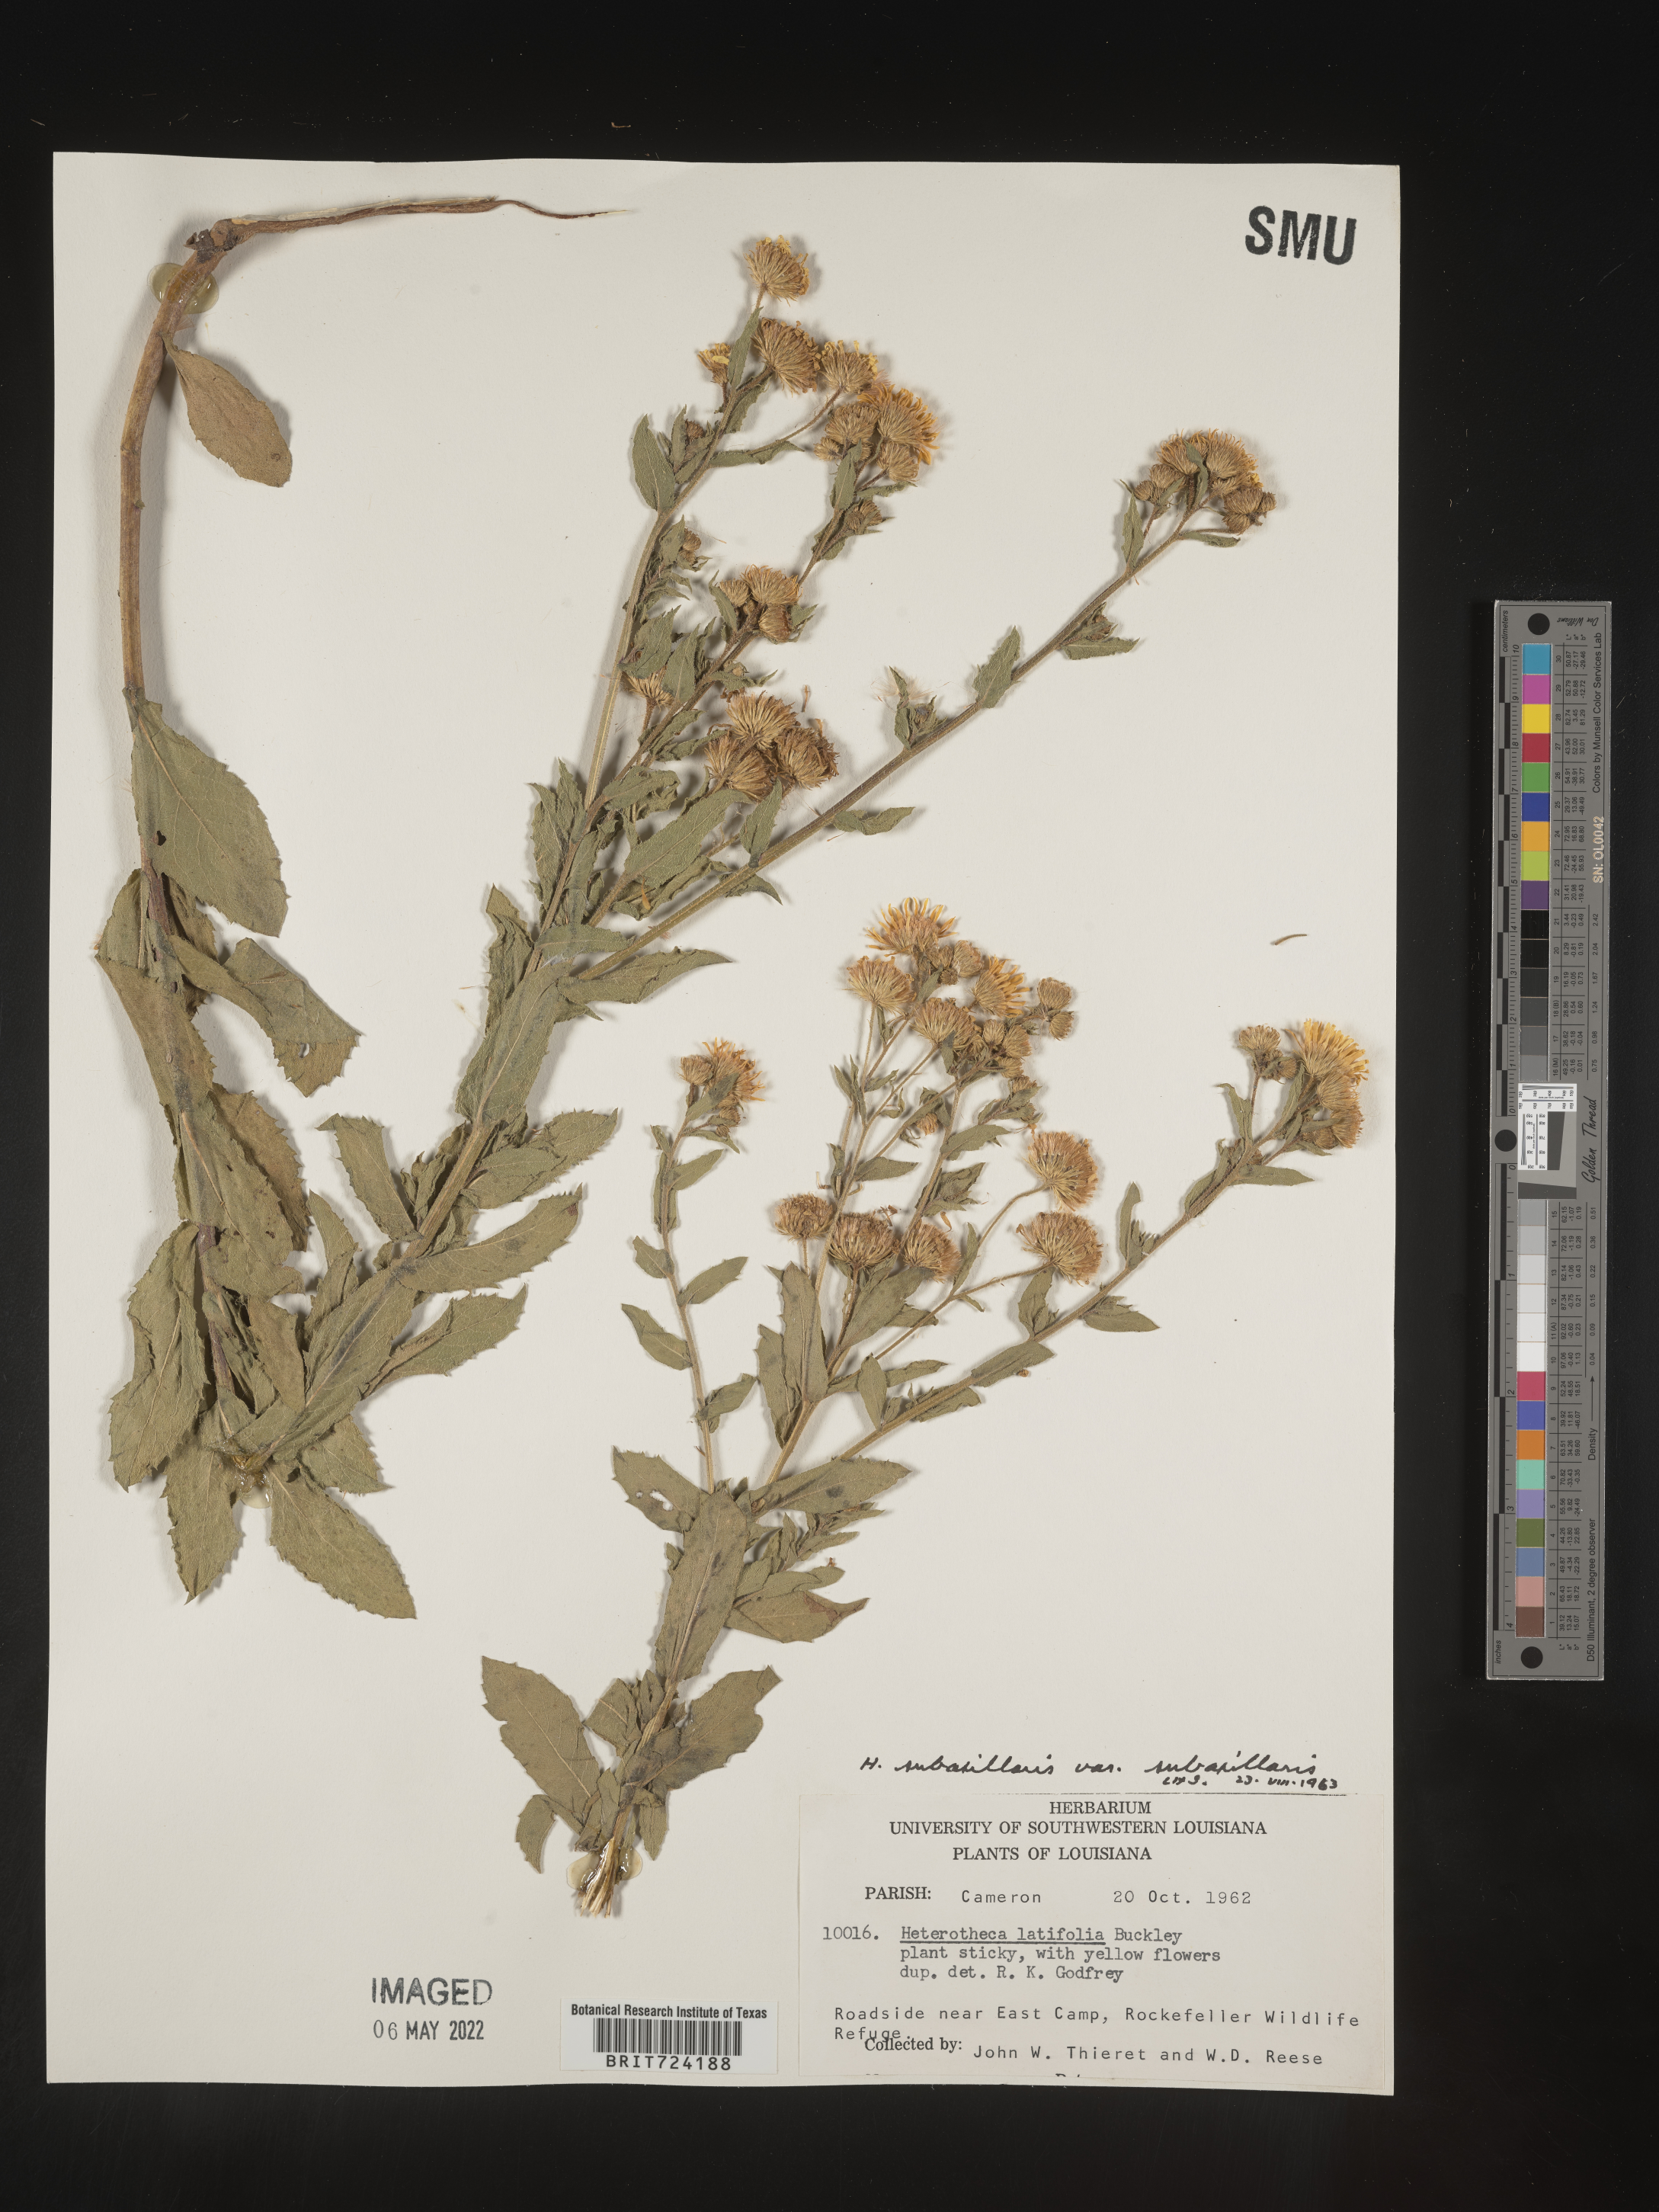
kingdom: Plantae
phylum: Tracheophyta
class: Magnoliopsida
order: Asterales
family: Asteraceae
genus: Heterotheca
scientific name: Heterotheca subaxillaris
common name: Camphorweed
